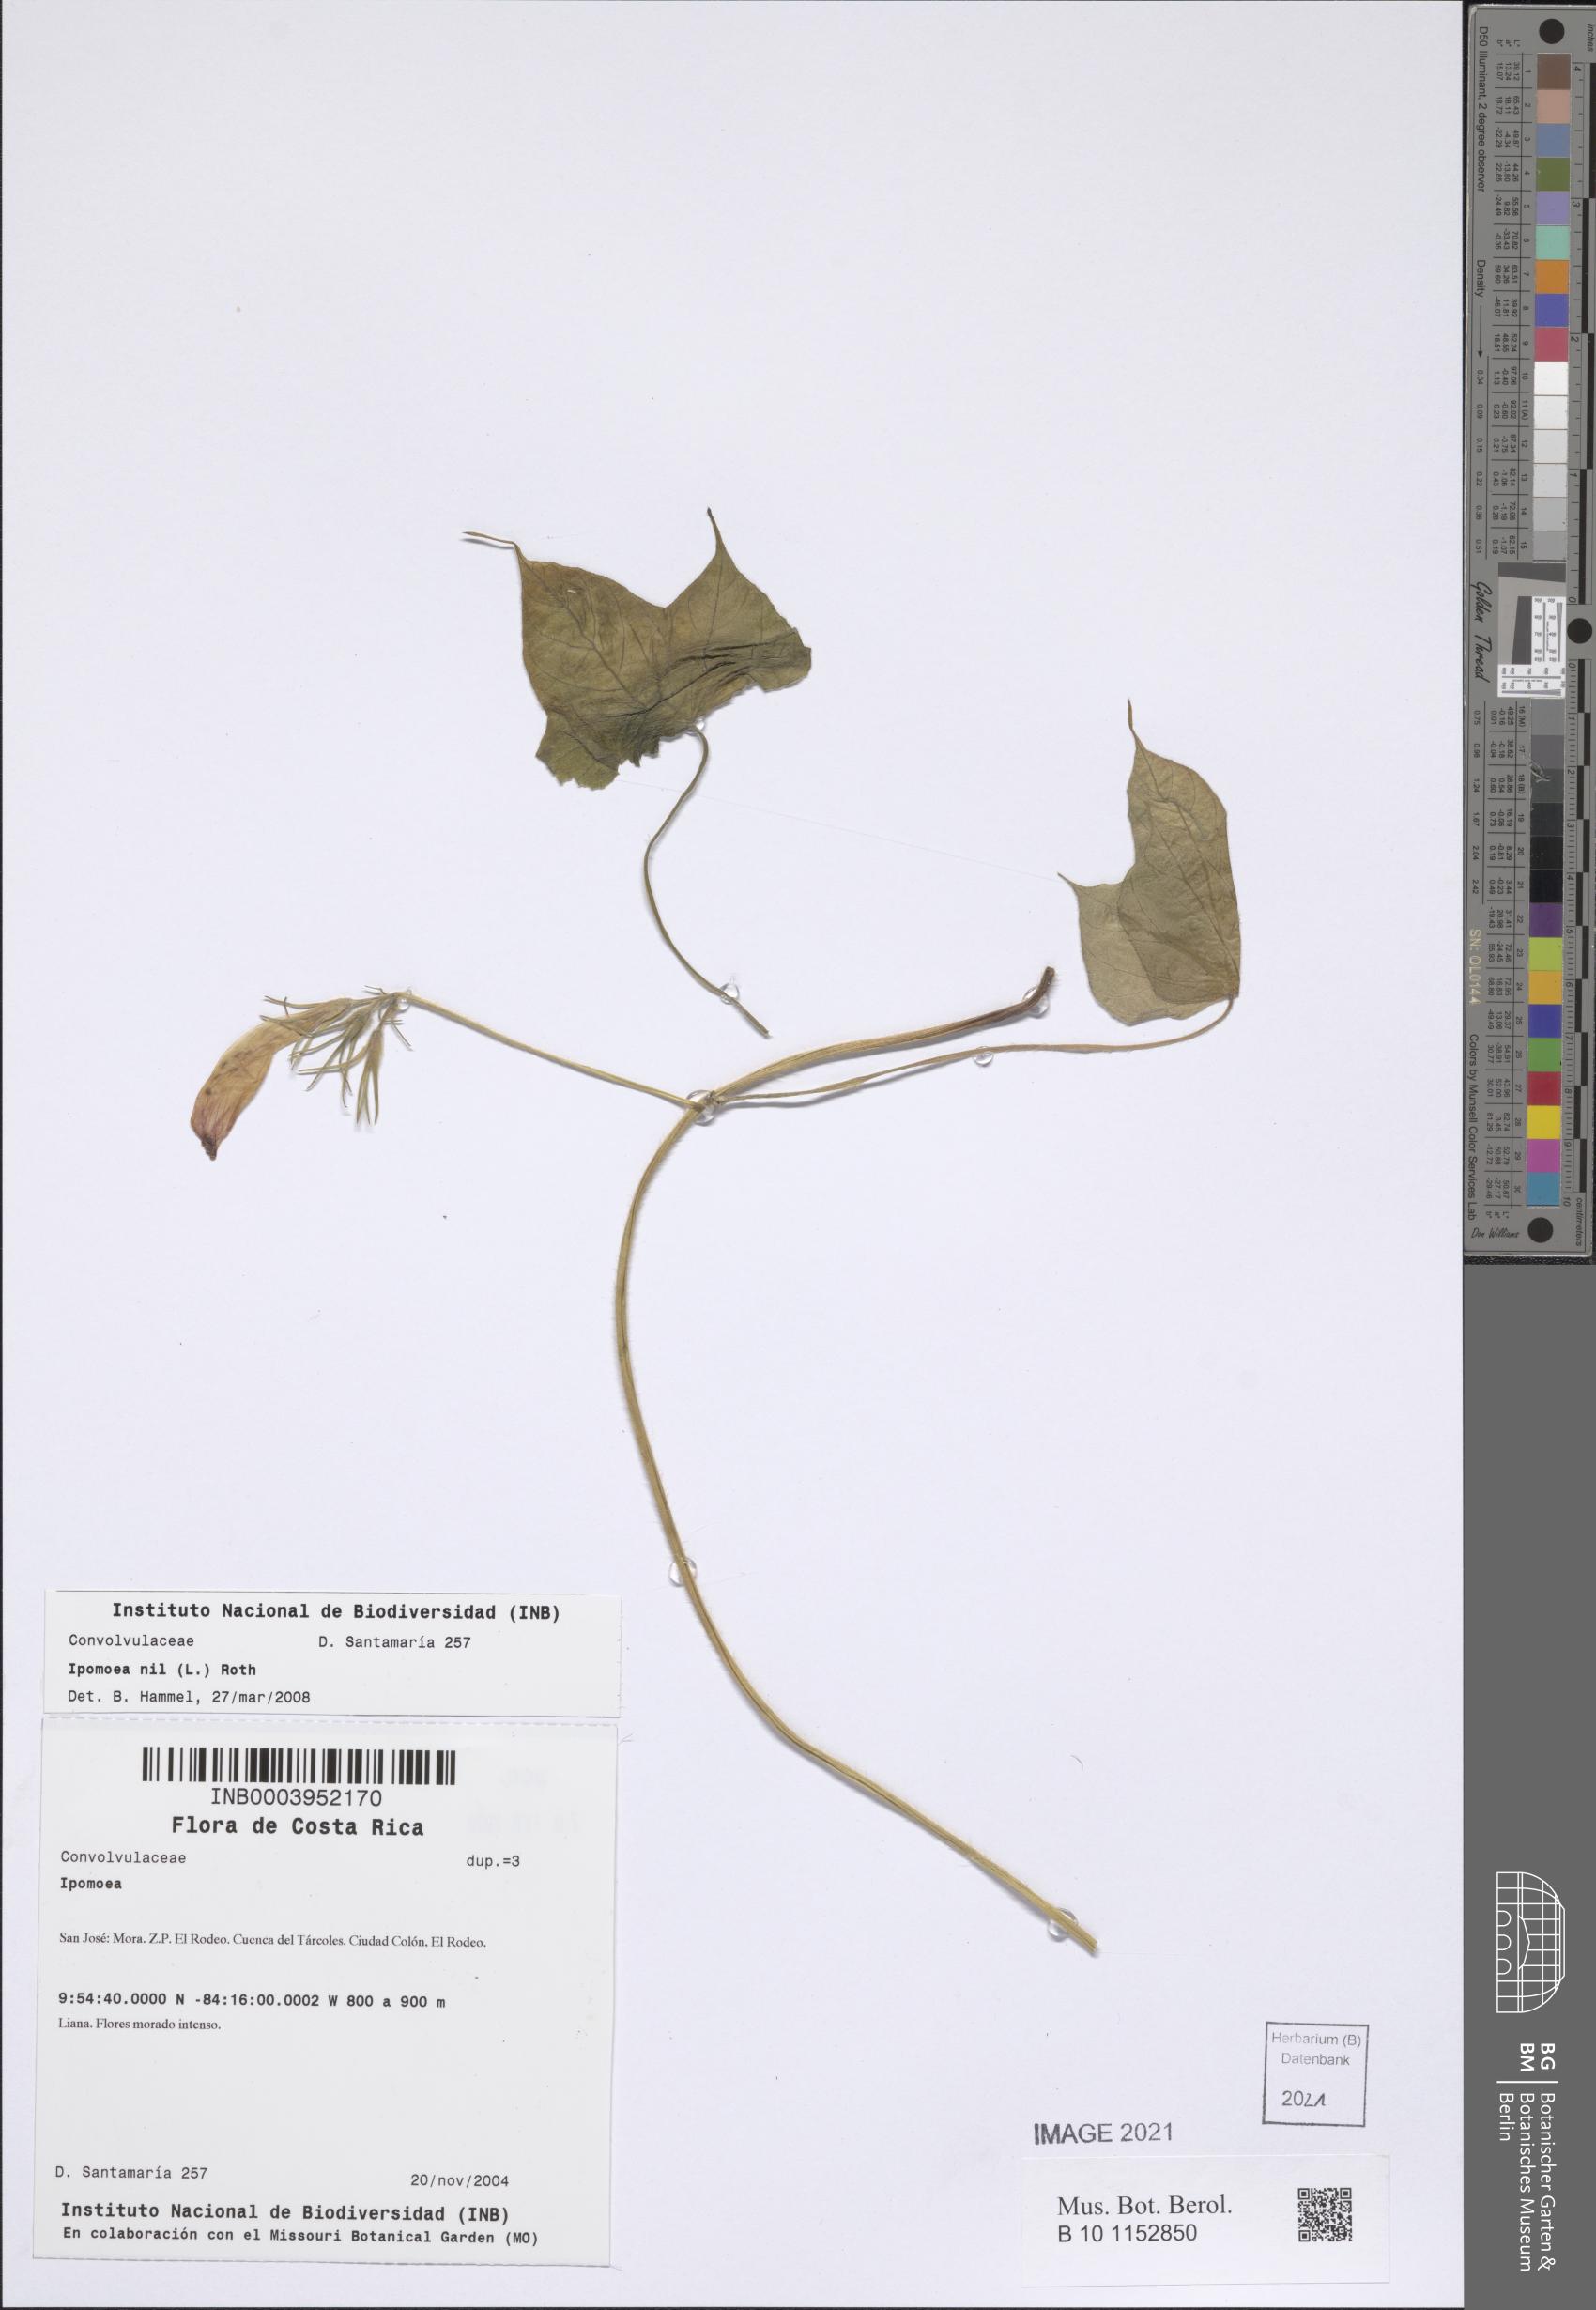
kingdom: Plantae
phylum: Tracheophyta
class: Magnoliopsida
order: Solanales
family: Convolvulaceae
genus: Ipomoea
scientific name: Ipomoea nil
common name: Japanese morning-glory
